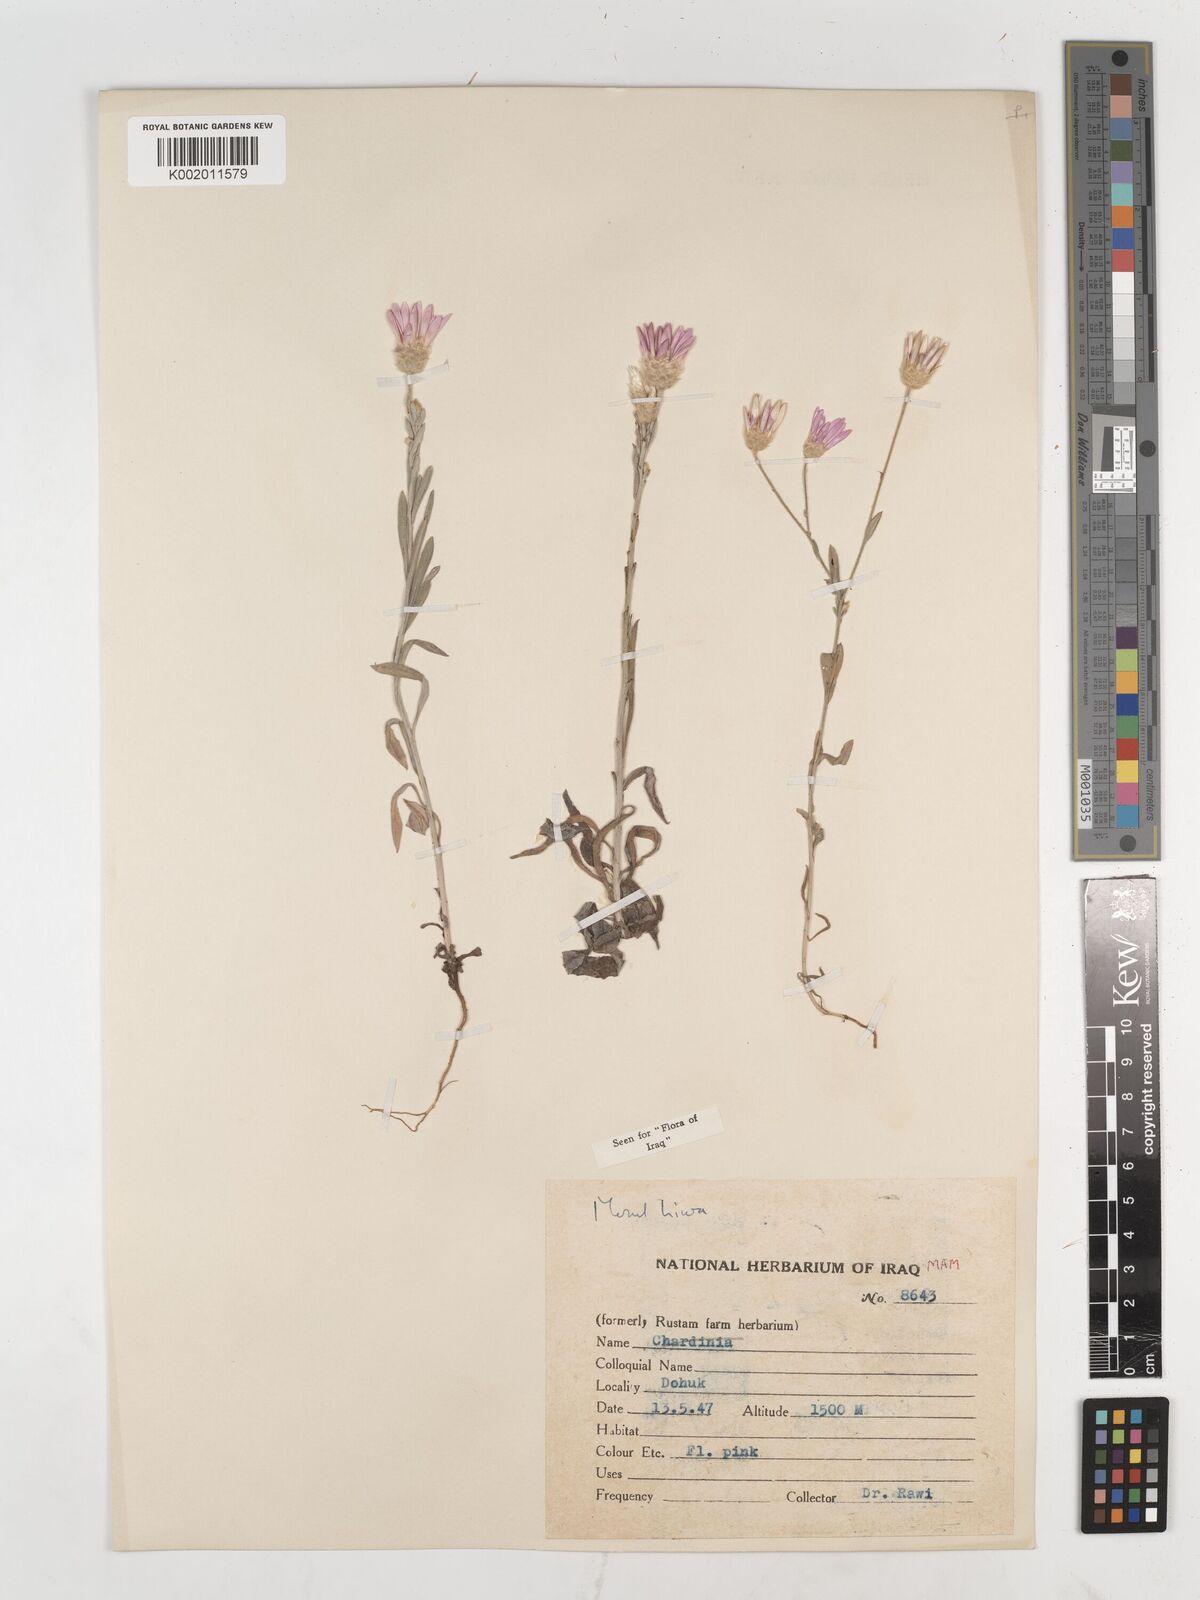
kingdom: Plantae
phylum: Tracheophyta
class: Magnoliopsida
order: Asterales
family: Asteraceae
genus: Xeranthemum
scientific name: Xeranthemum annuum
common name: Immortelle
